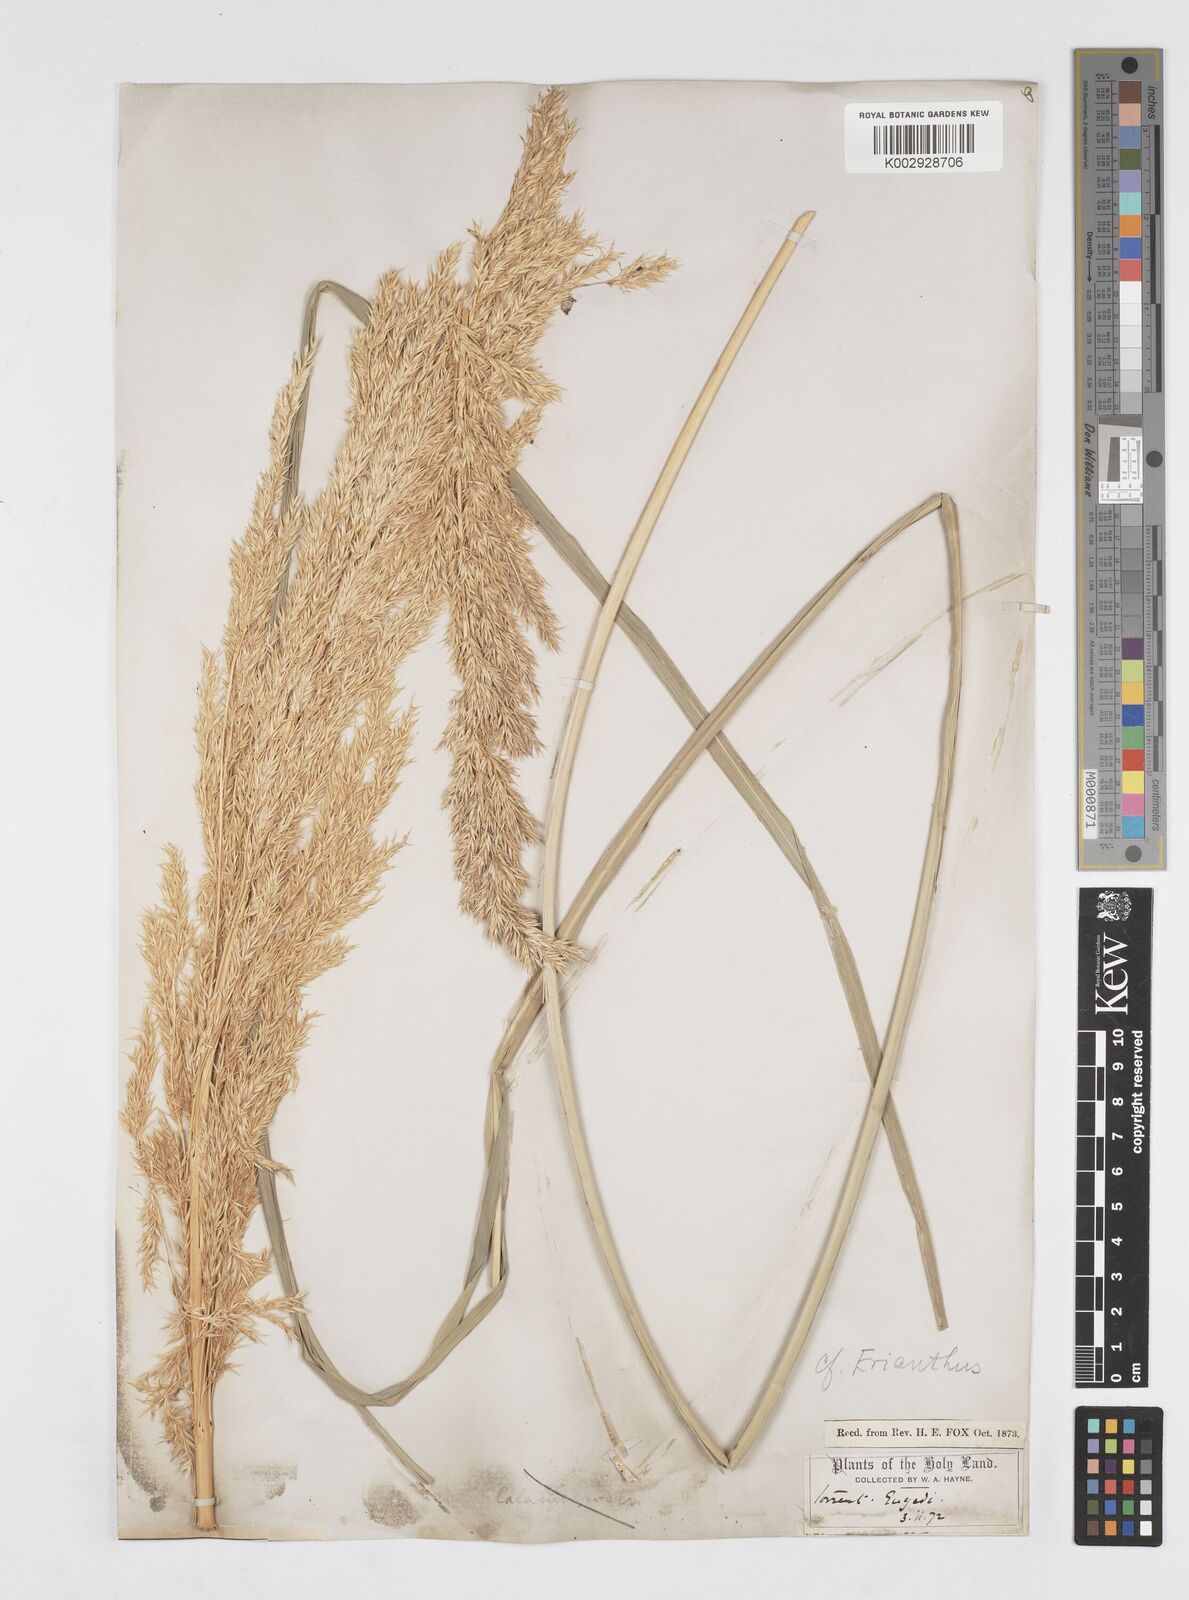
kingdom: Plantae
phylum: Tracheophyta
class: Liliopsida
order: Poales
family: Poaceae
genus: Saccharum
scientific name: Saccharum
